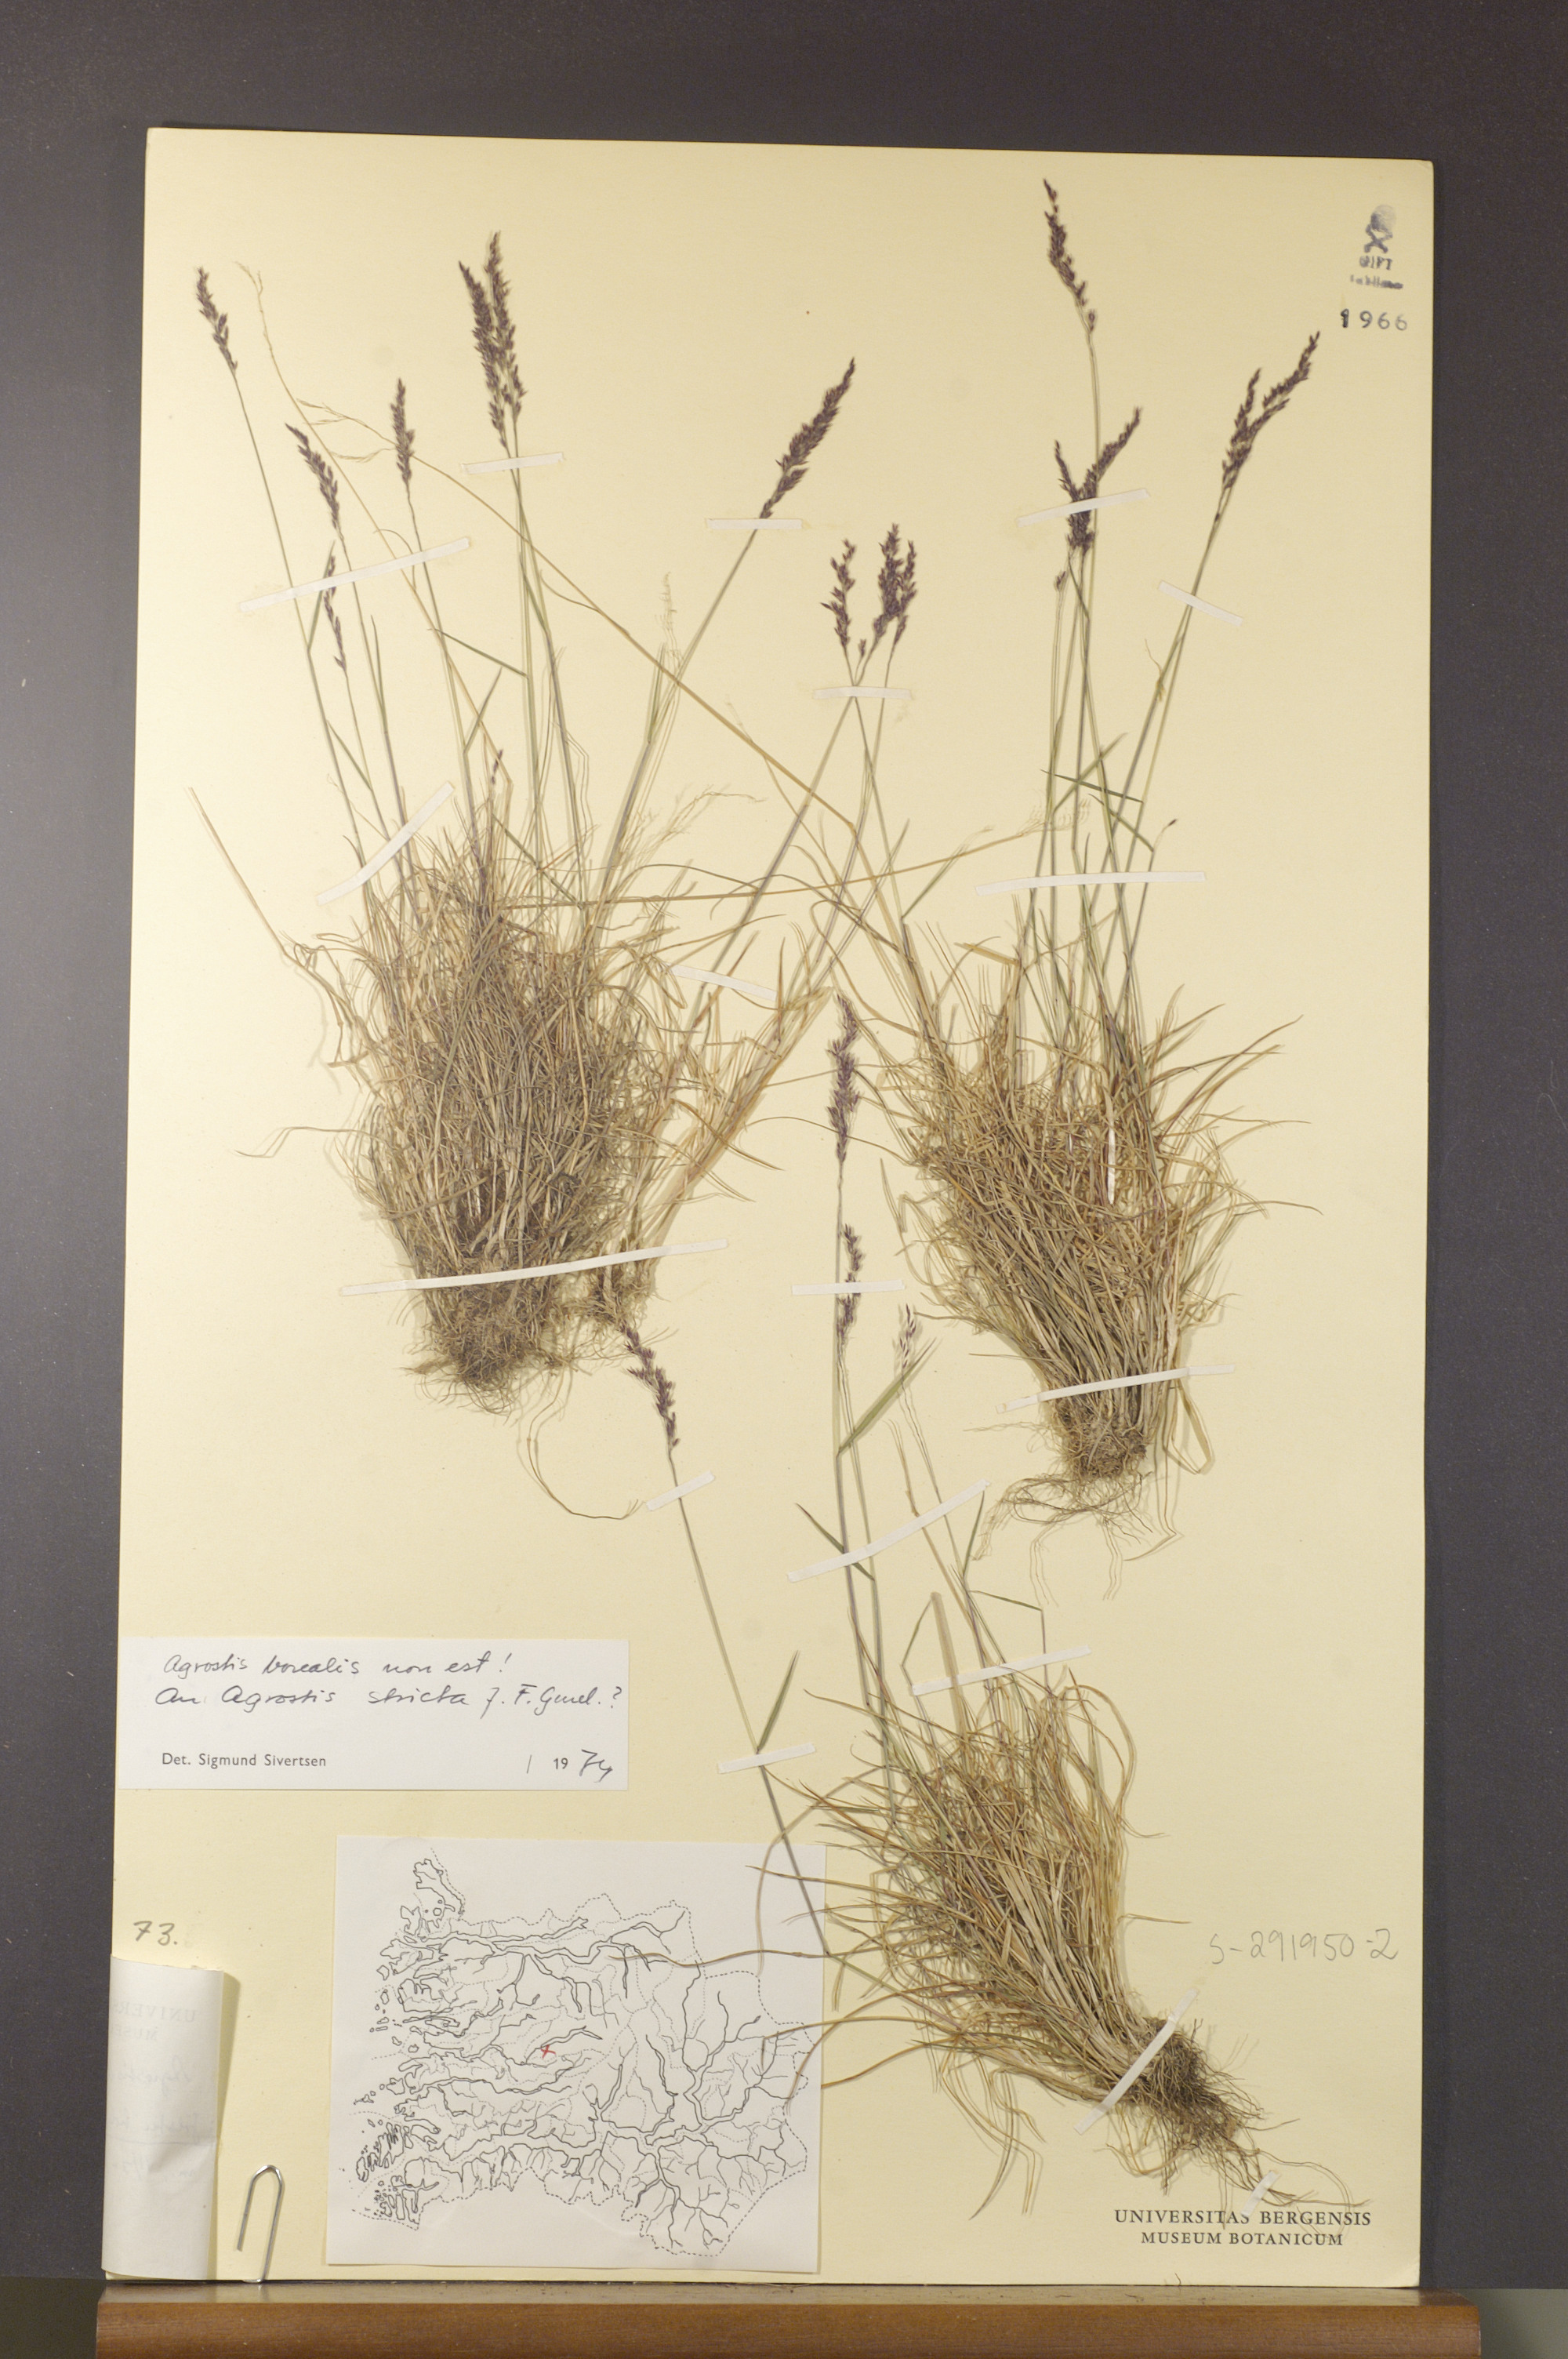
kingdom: Plantae
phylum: Tracheophyta
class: Liliopsida
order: Poales
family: Poaceae
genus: Agrostis
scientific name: Agrostis vinealis
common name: Brown bent
